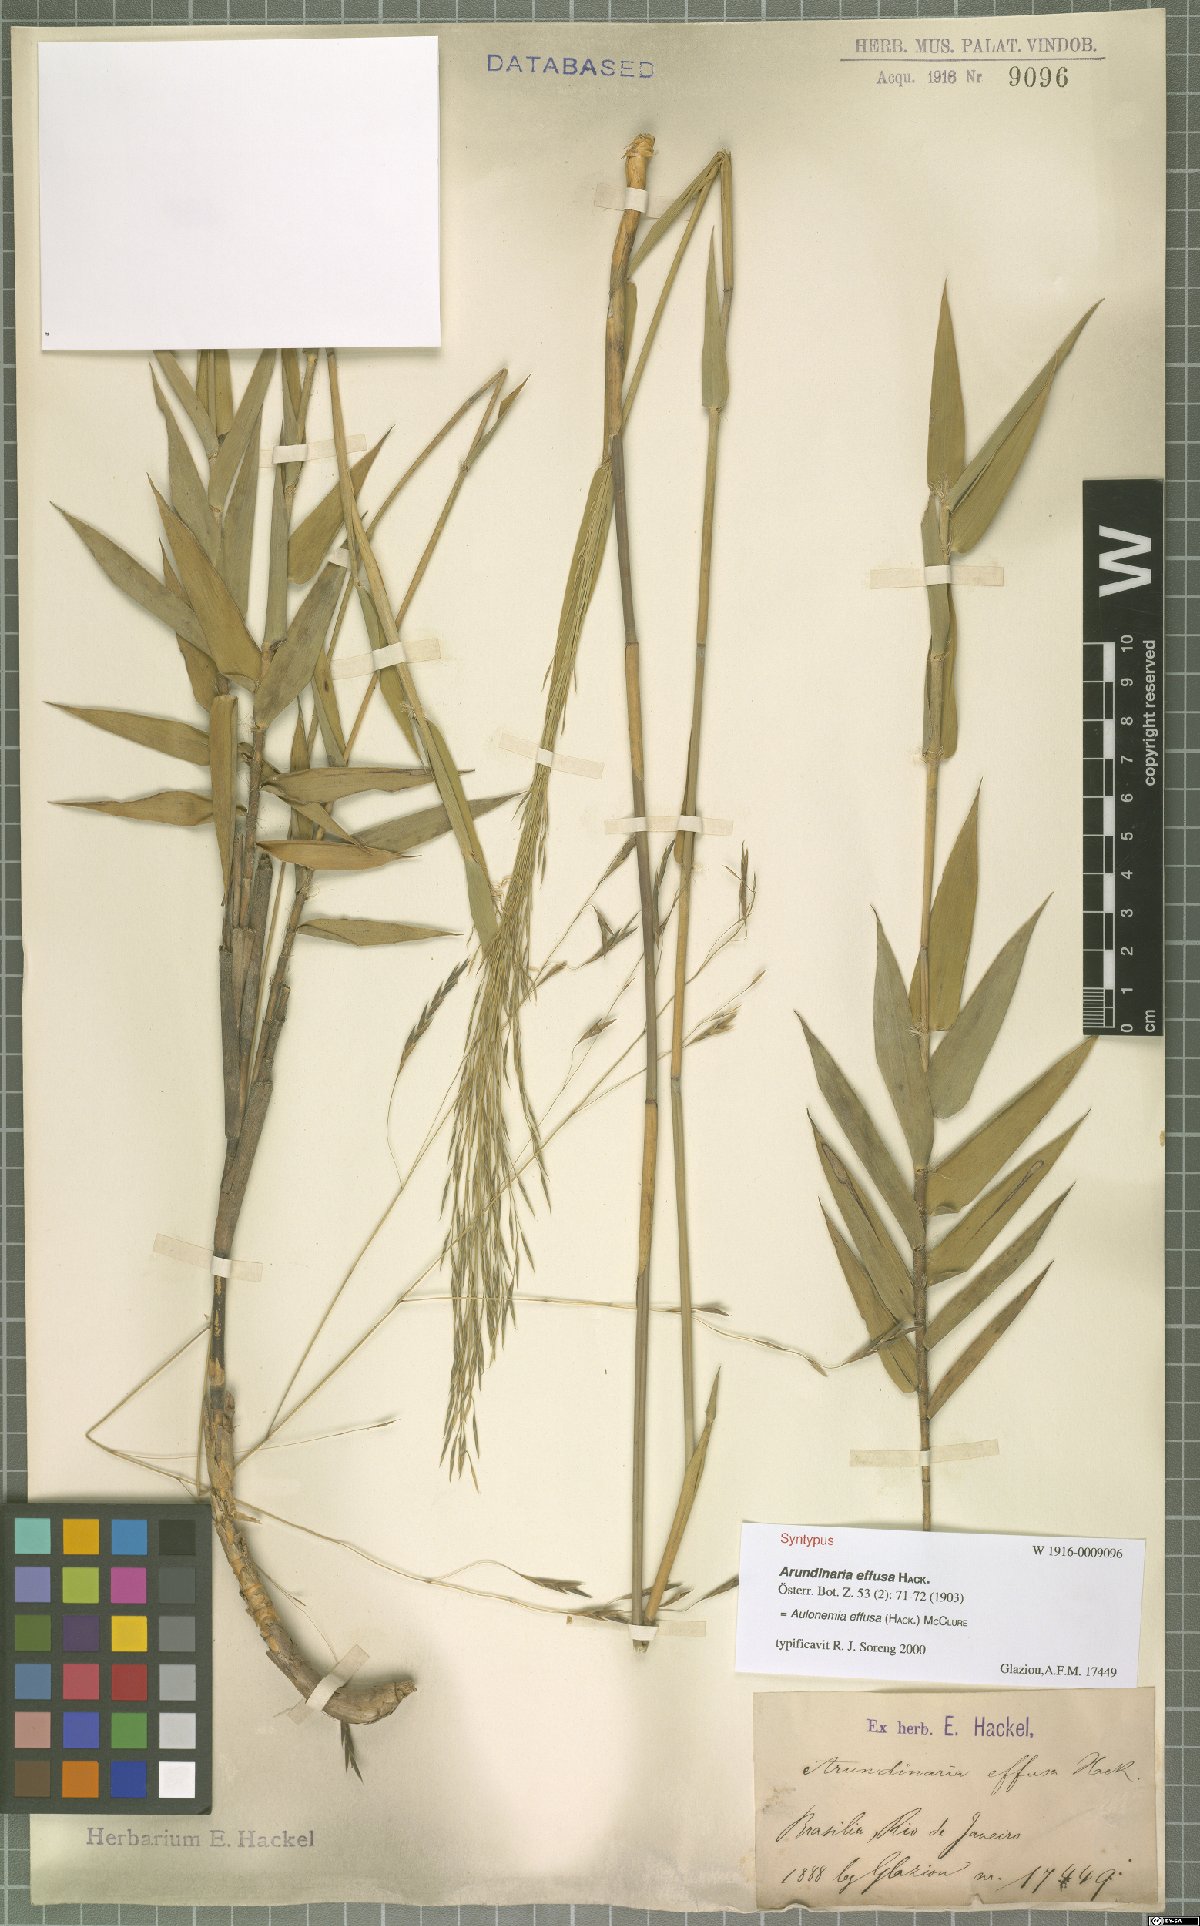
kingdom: Plantae
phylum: Tracheophyta
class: Liliopsida
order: Poales
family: Poaceae
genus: Aulonemia
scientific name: Aulonemia effusa
